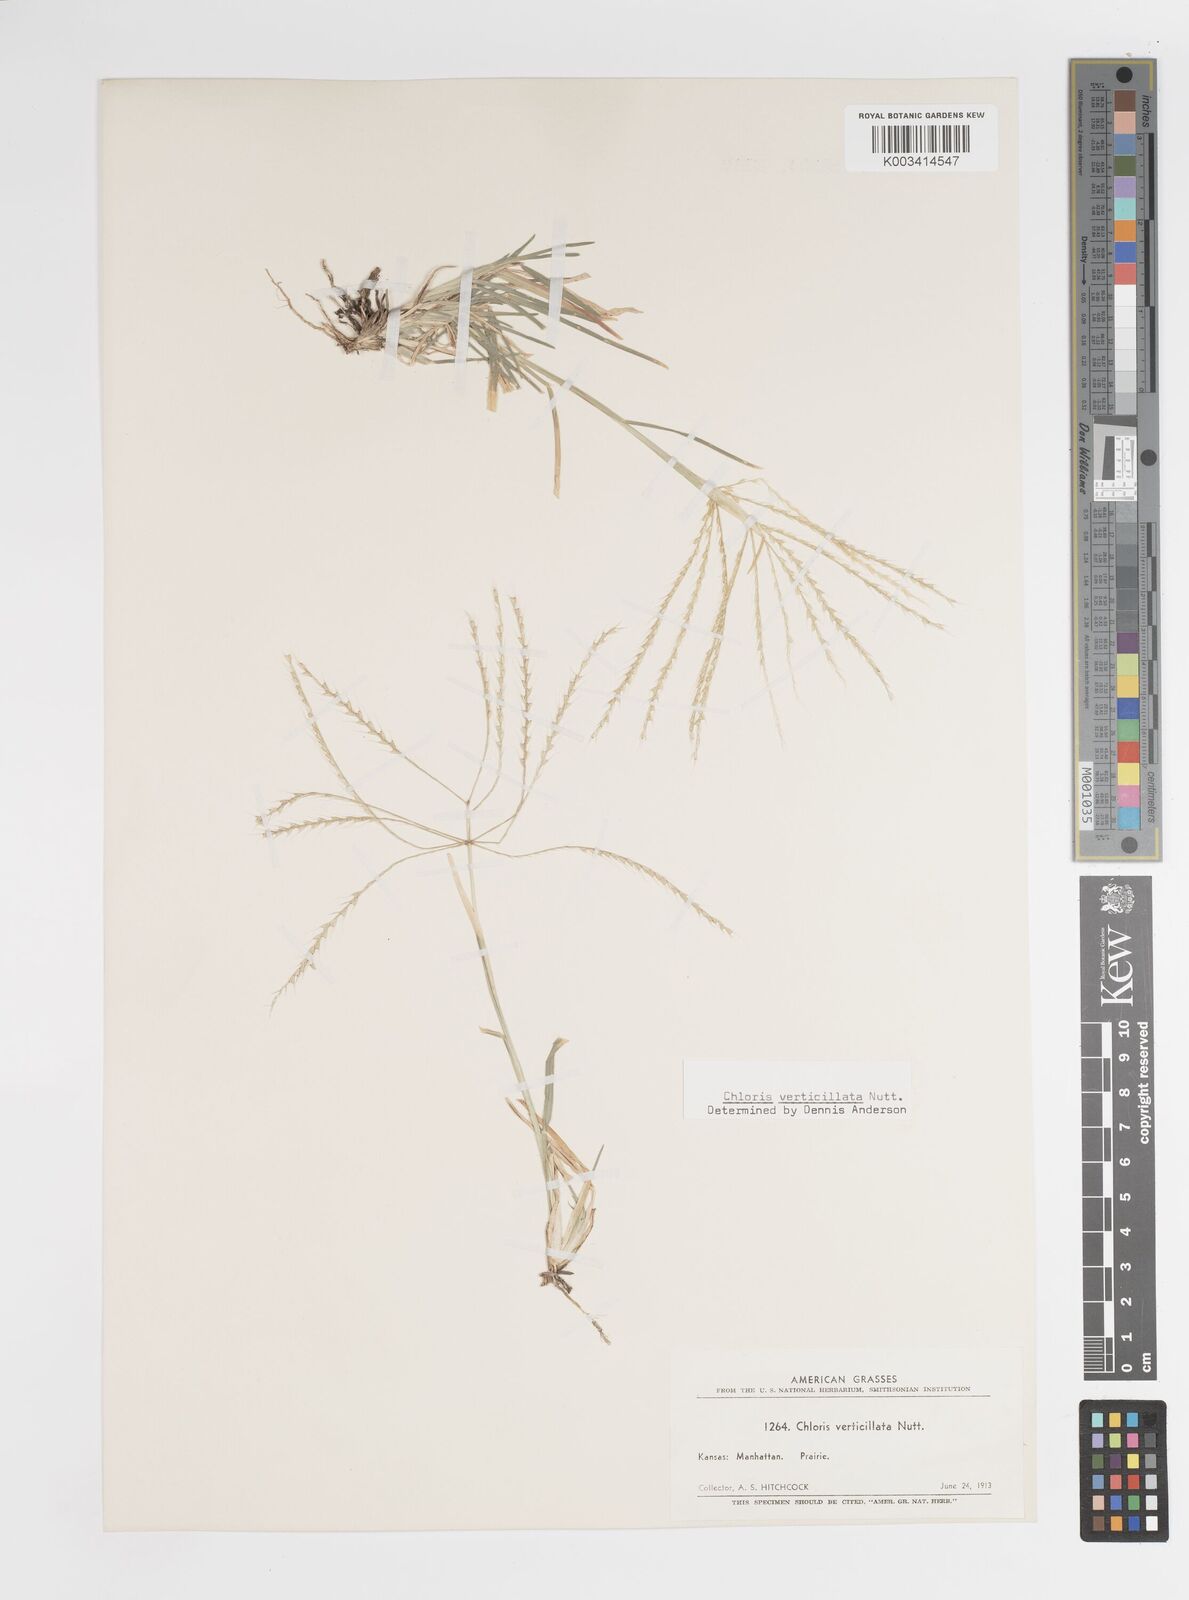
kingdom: Plantae
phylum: Tracheophyta
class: Liliopsida
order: Poales
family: Poaceae
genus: Chloris
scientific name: Chloris verticillata
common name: Tumble windmill grass
